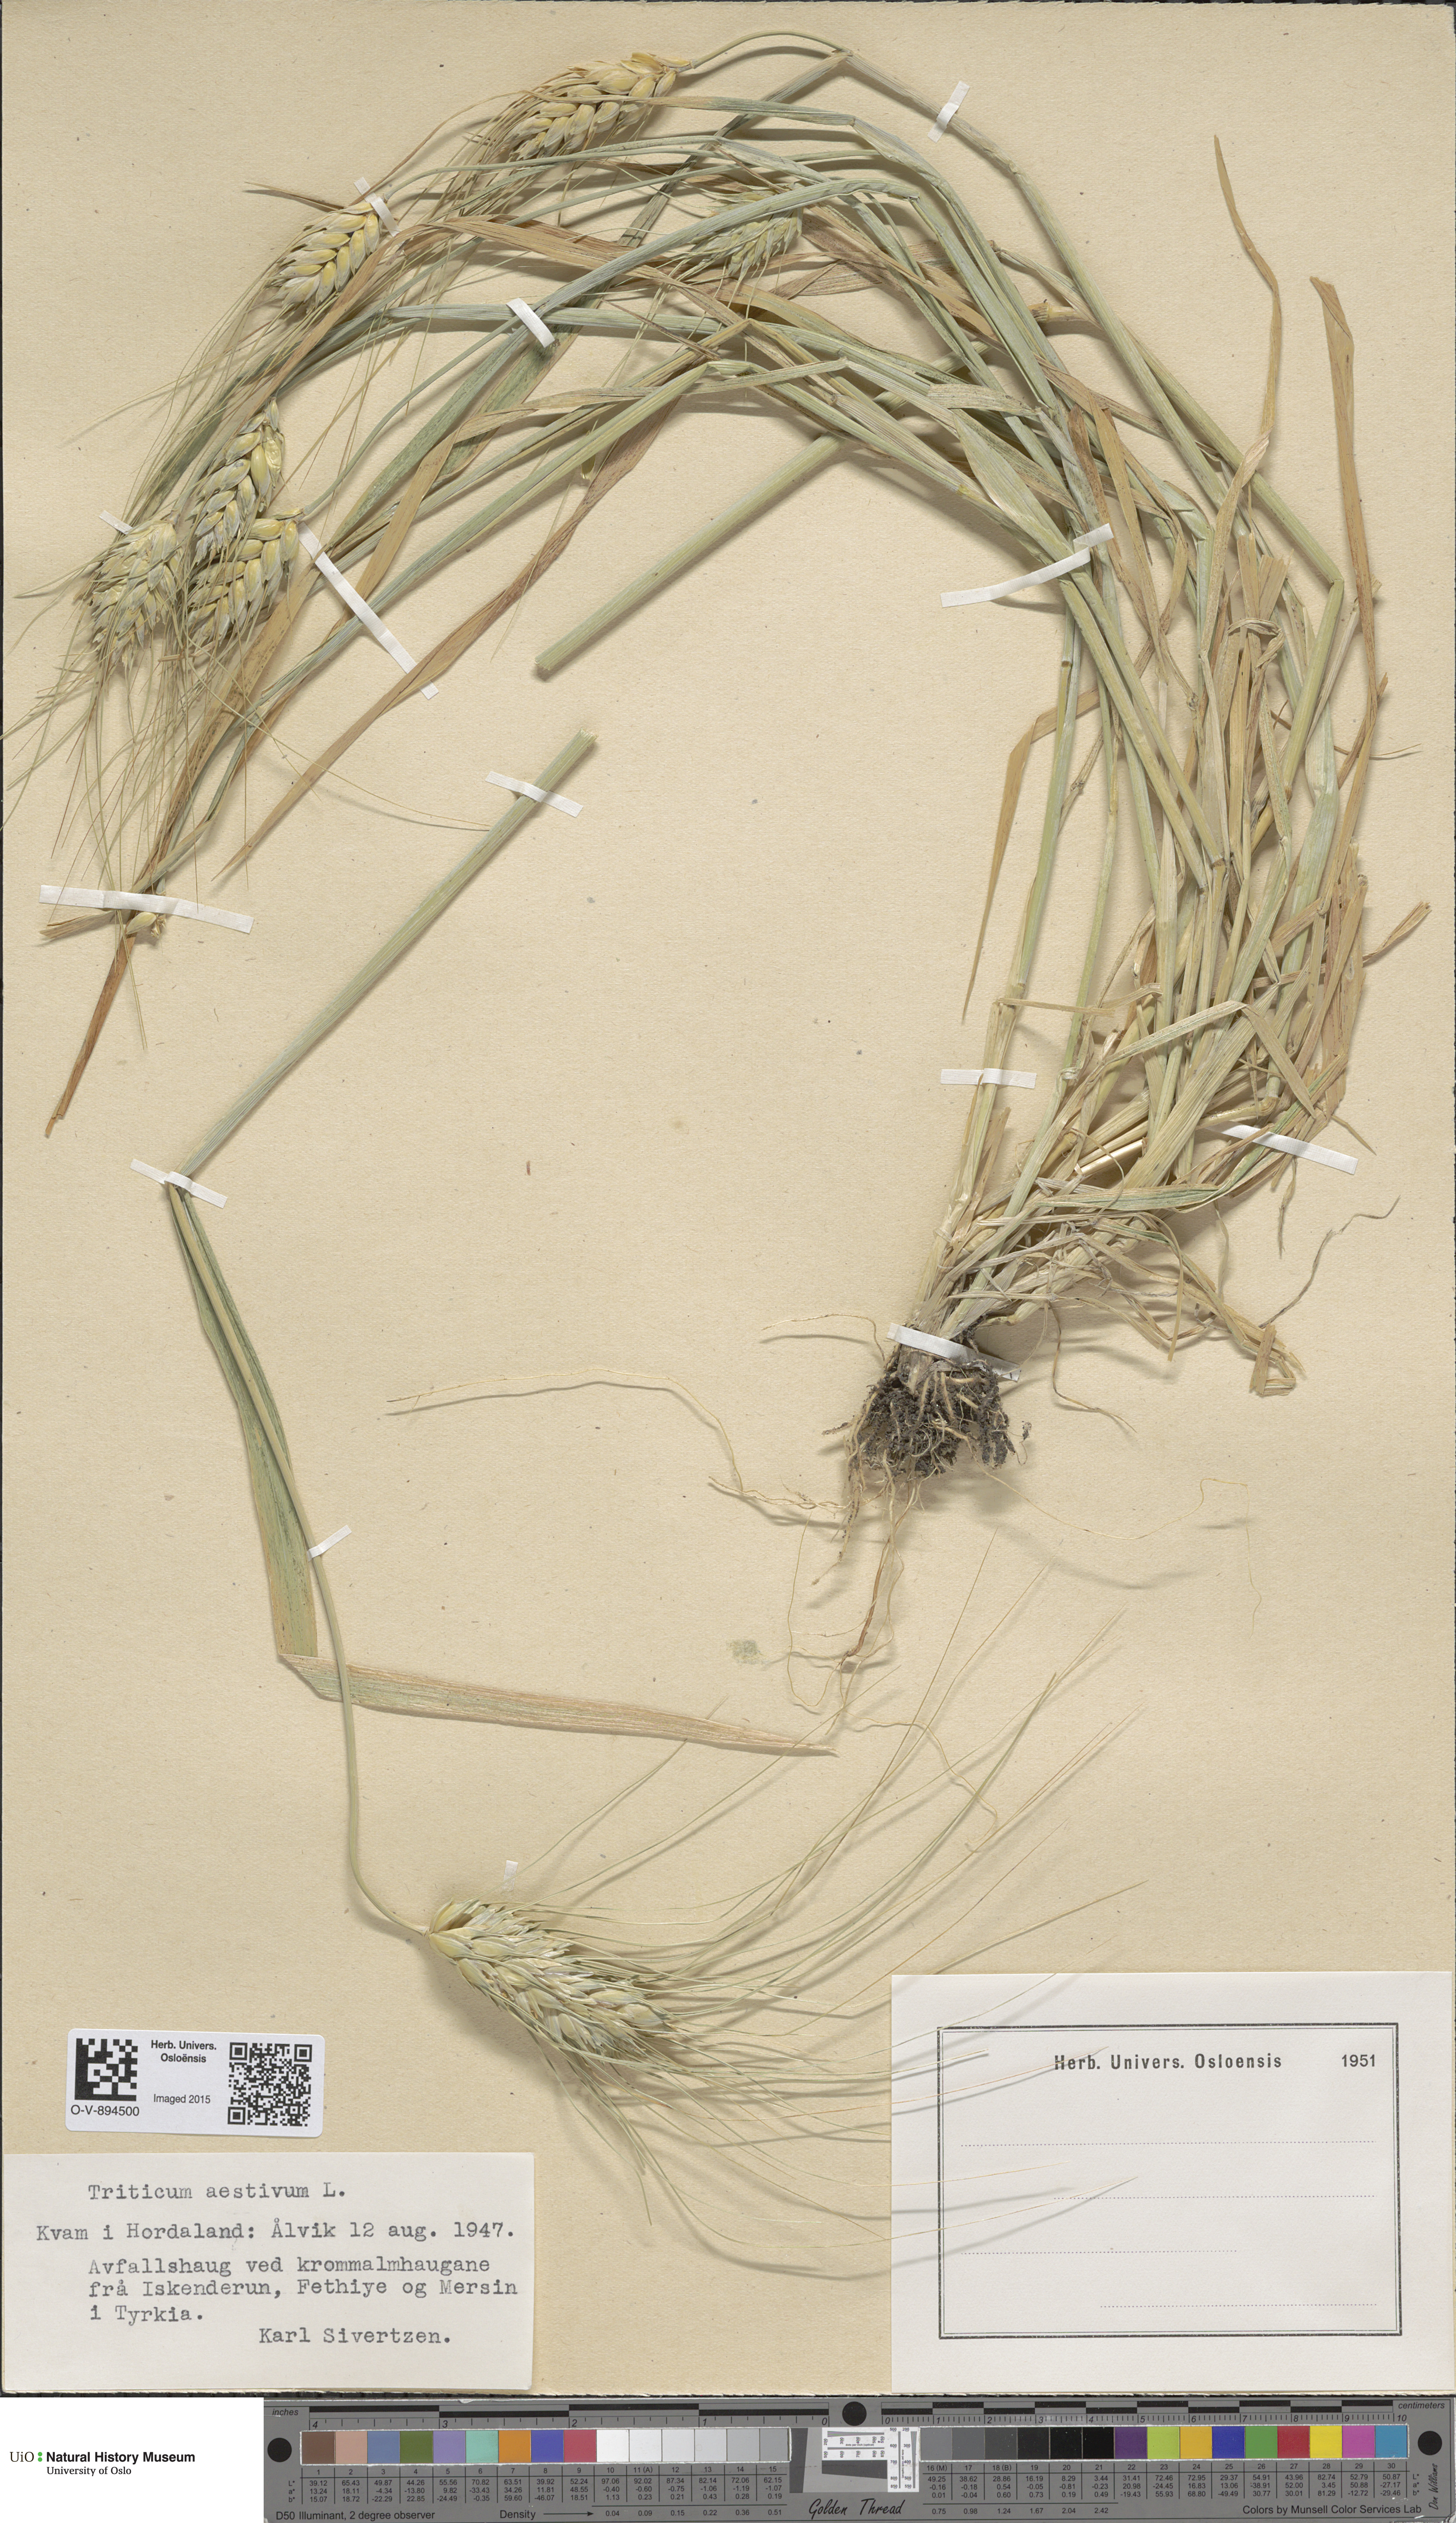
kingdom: Plantae
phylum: Tracheophyta
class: Liliopsida
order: Poales
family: Poaceae
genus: Triticum
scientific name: Triticum aestivum
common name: Common wheat
